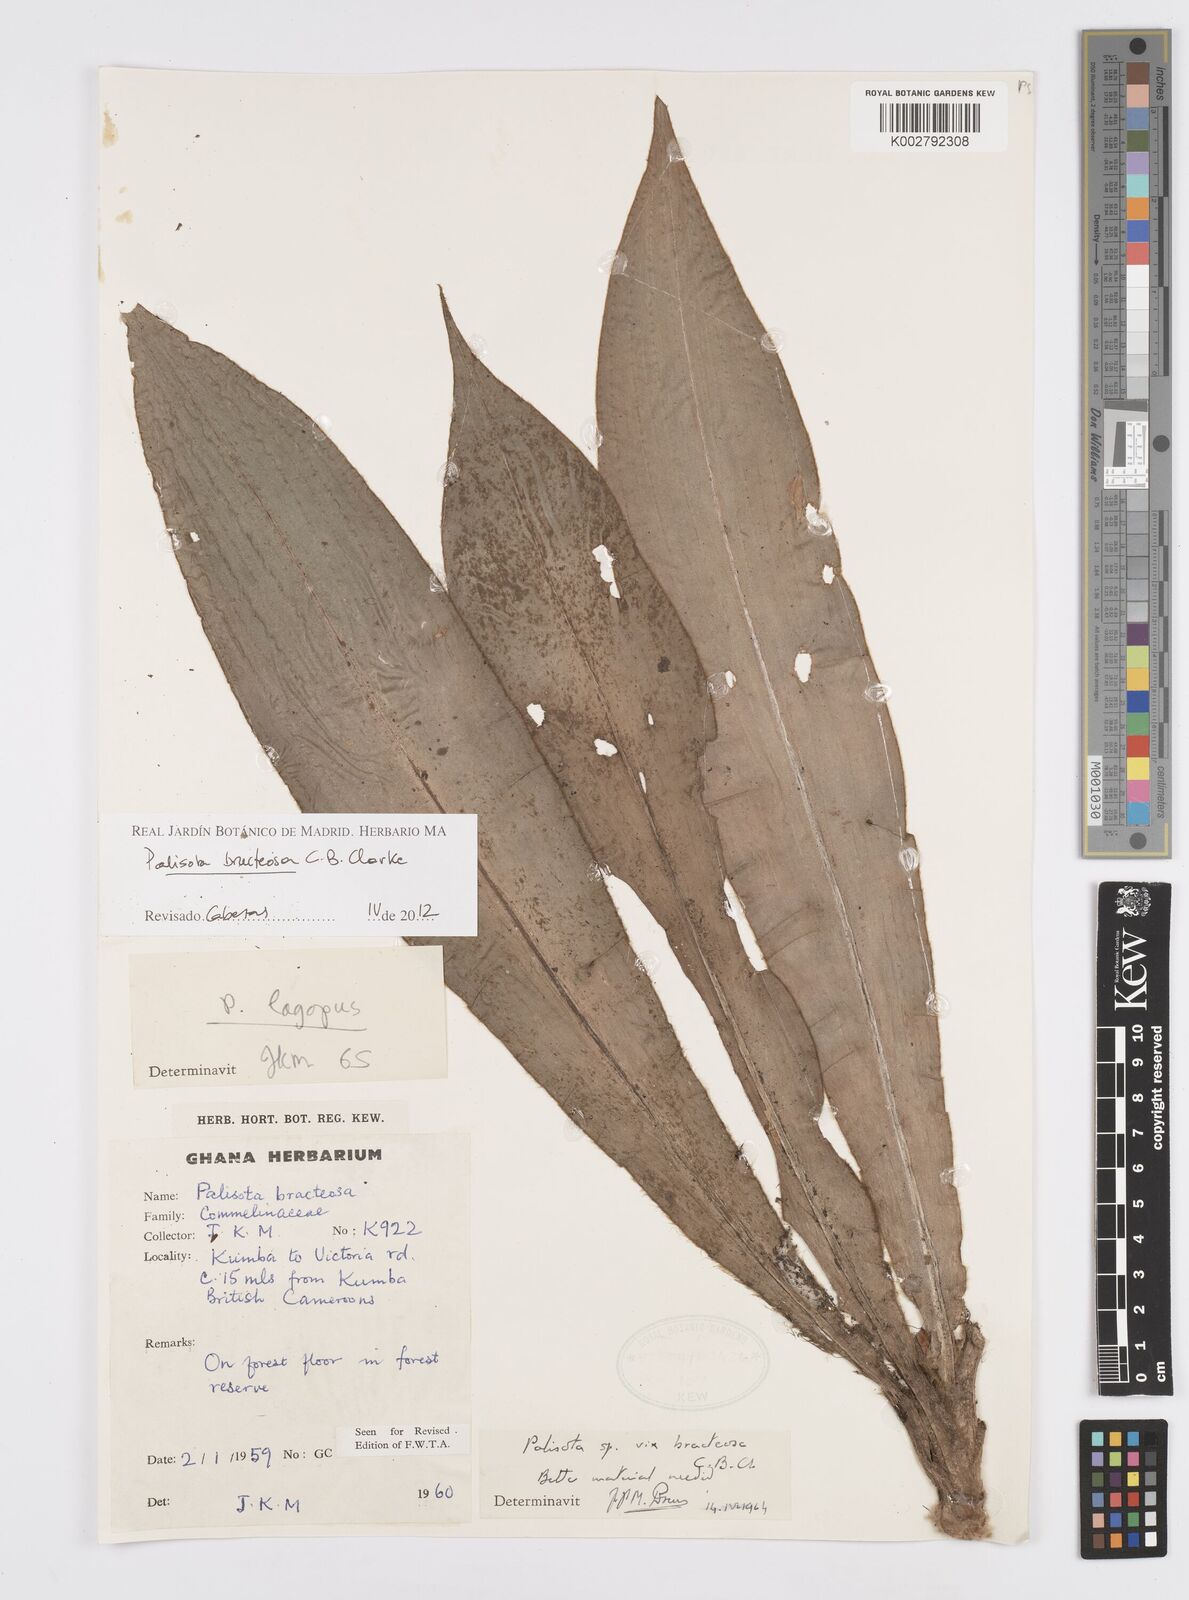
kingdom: Plantae
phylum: Tracheophyta
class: Liliopsida
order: Commelinales
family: Commelinaceae
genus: Palisota
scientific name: Palisota bracteosa
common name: Palisota
